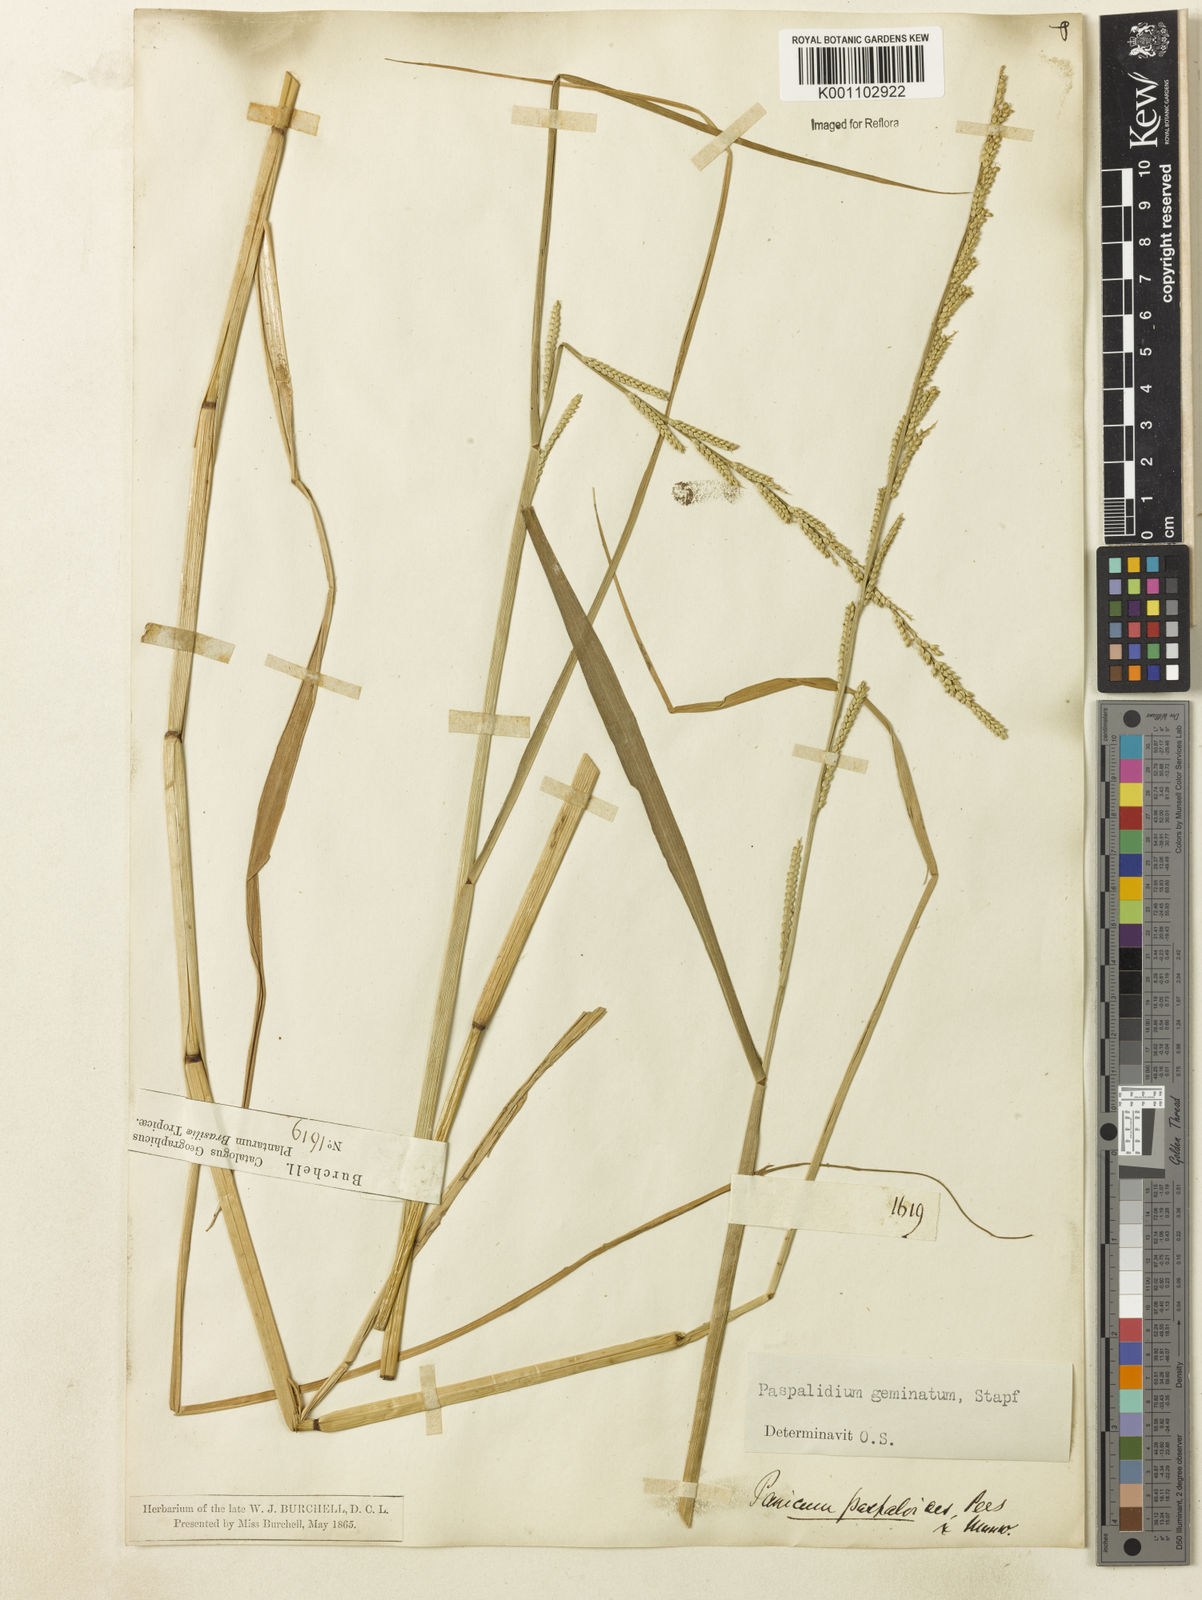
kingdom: Plantae
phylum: Tracheophyta
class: Liliopsida
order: Poales
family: Poaceae
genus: Setaria
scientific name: Setaria geminata
